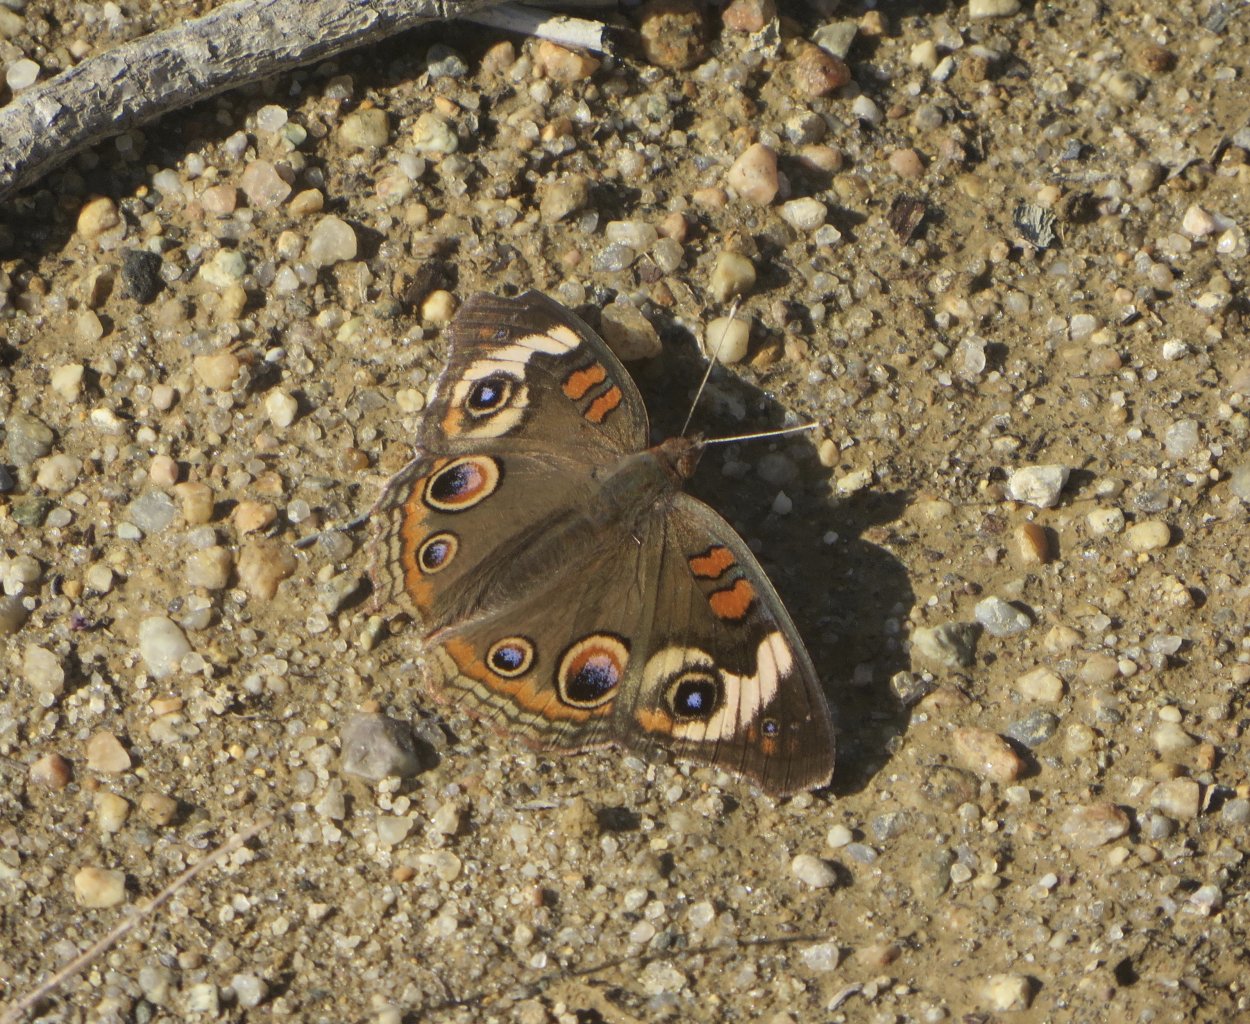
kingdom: Animalia
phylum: Arthropoda
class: Insecta
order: Lepidoptera
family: Nymphalidae
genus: Junonia
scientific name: Junonia coenia
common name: Common Buckeye
